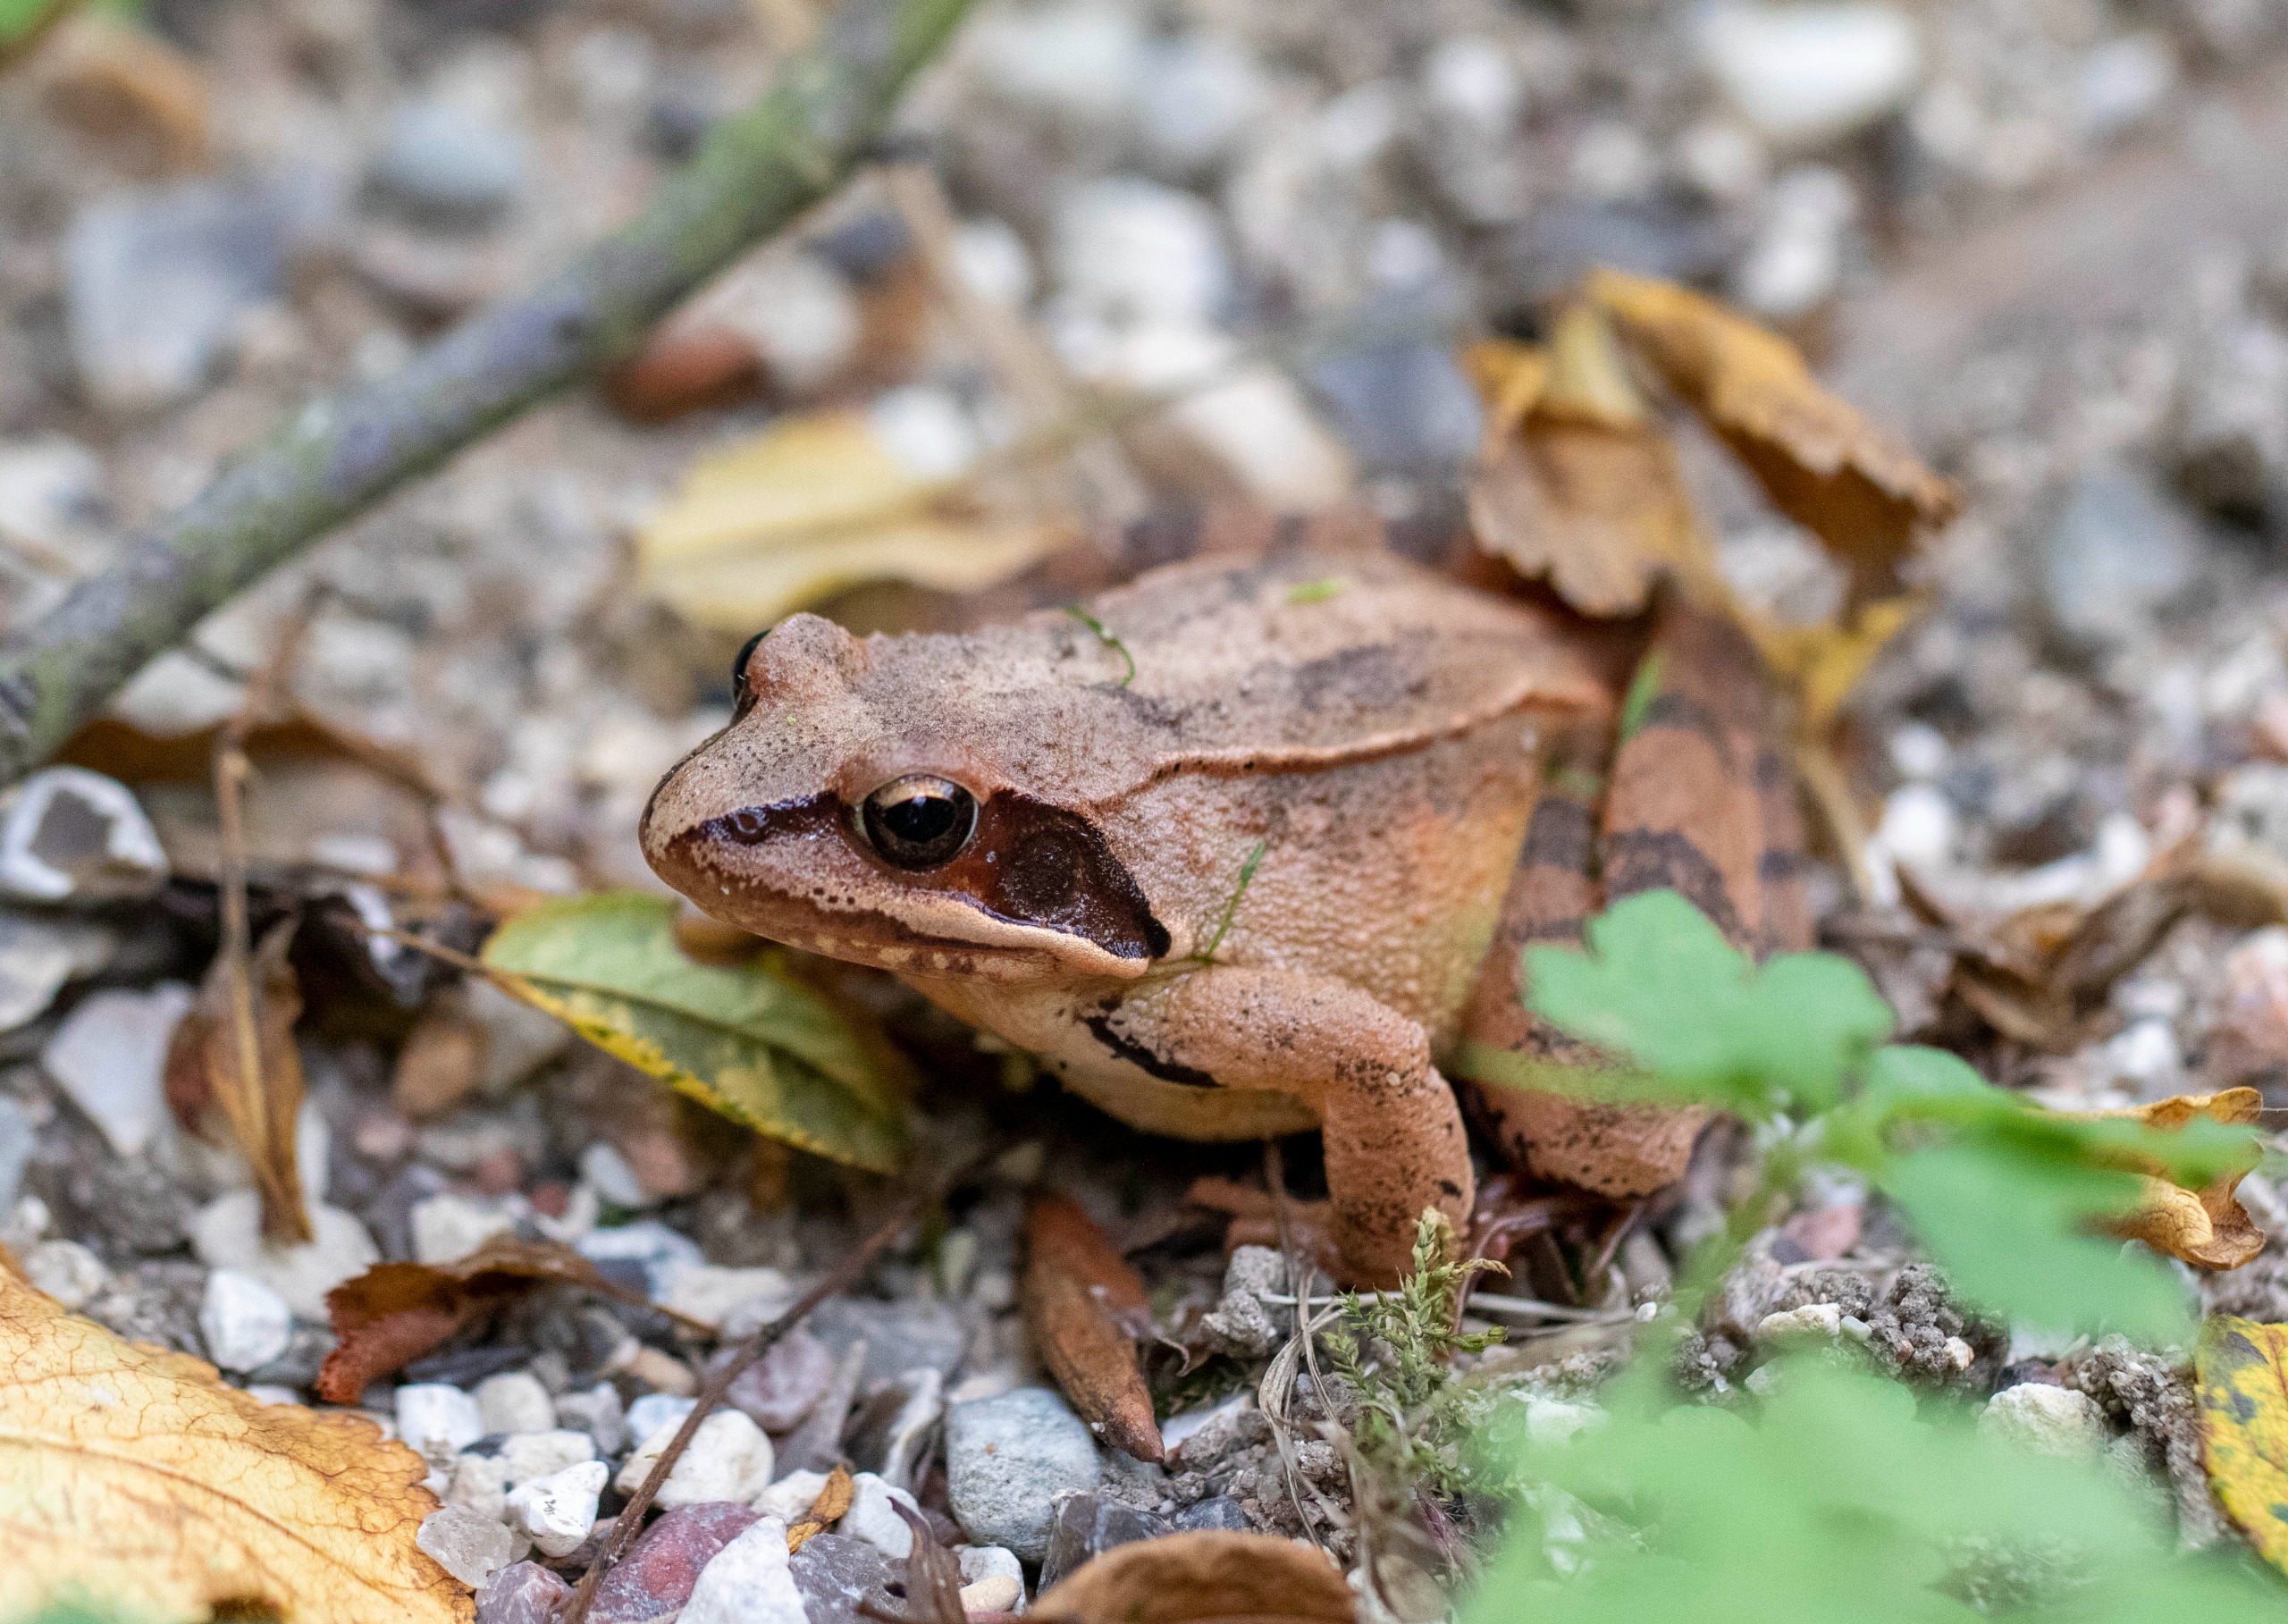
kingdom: Animalia
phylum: Chordata
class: Amphibia
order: Anura
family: Ranidae
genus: Rana
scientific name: Rana dalmatina
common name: Springfrø
